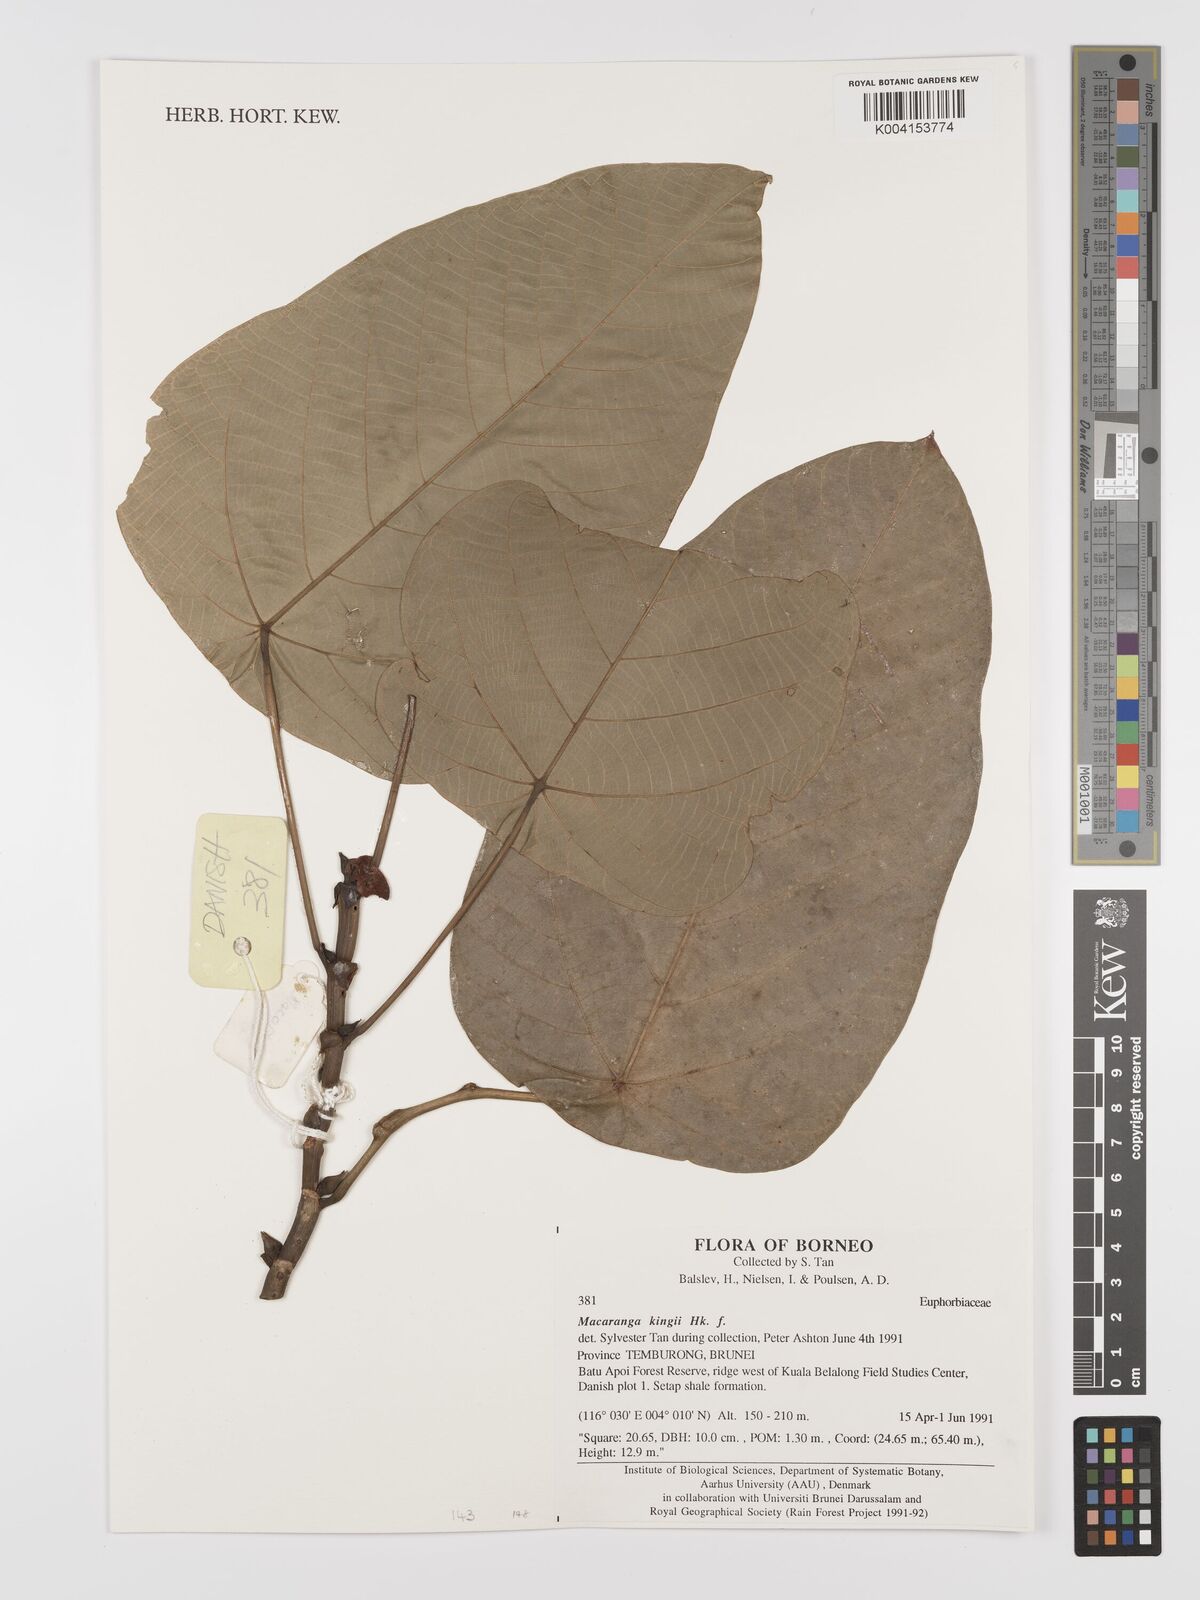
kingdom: Plantae
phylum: Tracheophyta
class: Magnoliopsida
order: Malpighiales
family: Euphorbiaceae
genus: Macaranga
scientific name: Macaranga kingii
